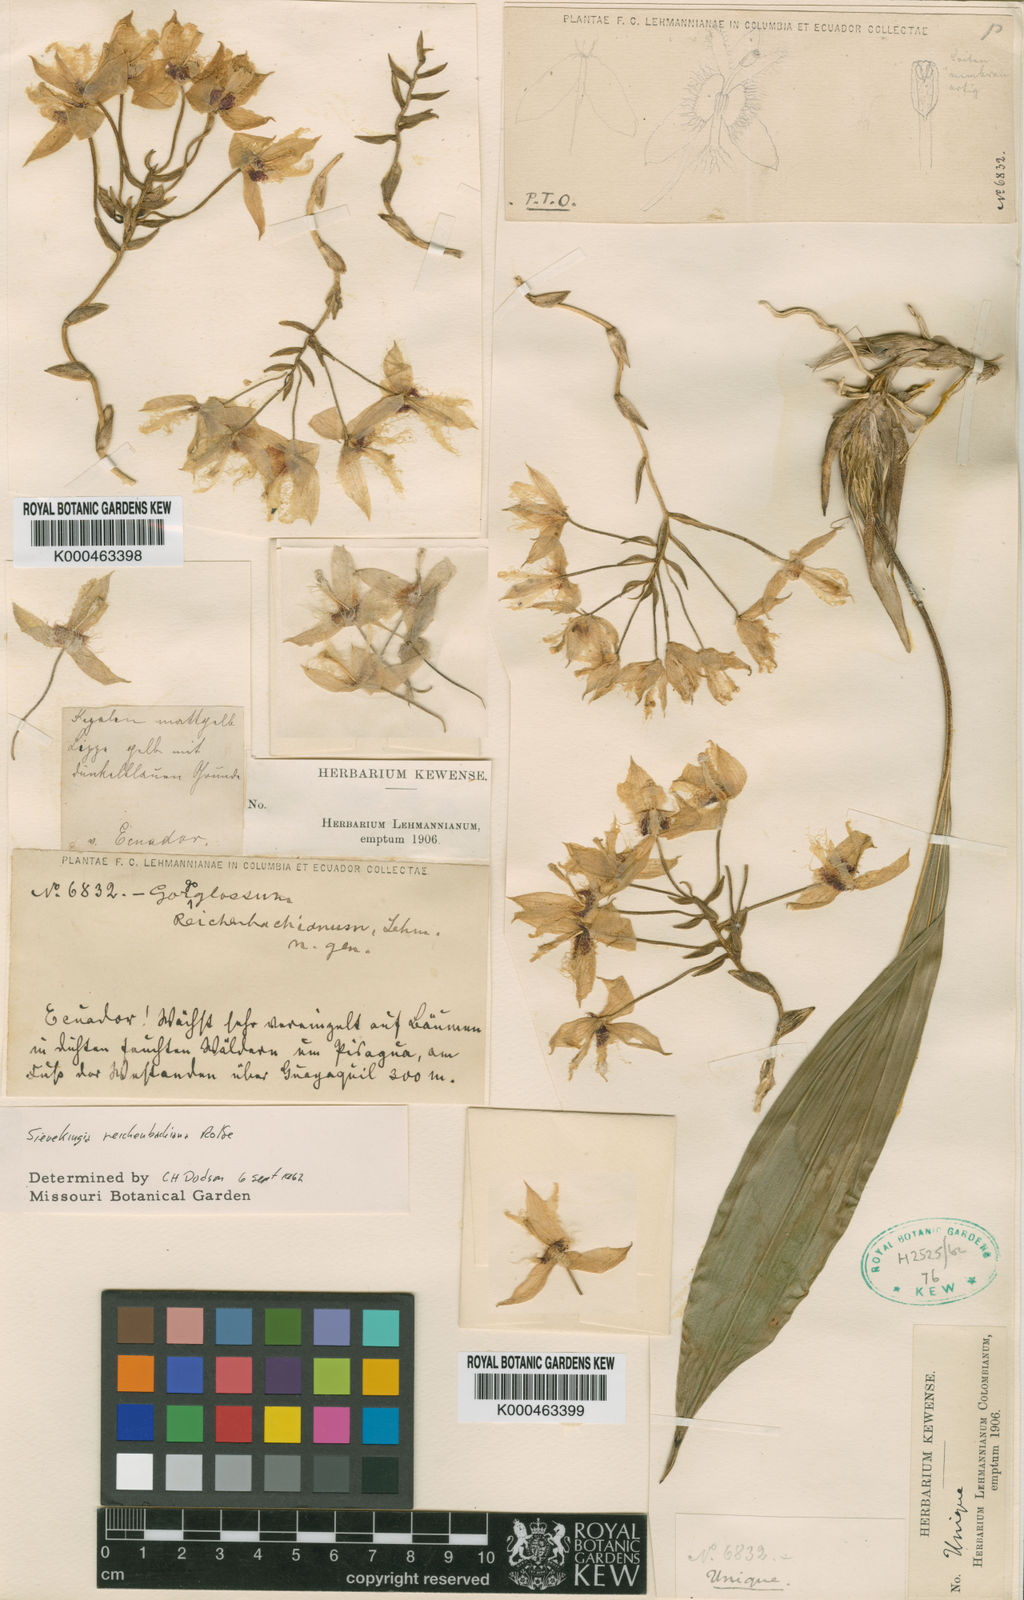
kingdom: Plantae
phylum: Tracheophyta
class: Liliopsida
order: Asparagales
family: Orchidaceae
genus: Sievekingia
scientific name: Sievekingia reichenbachiana
